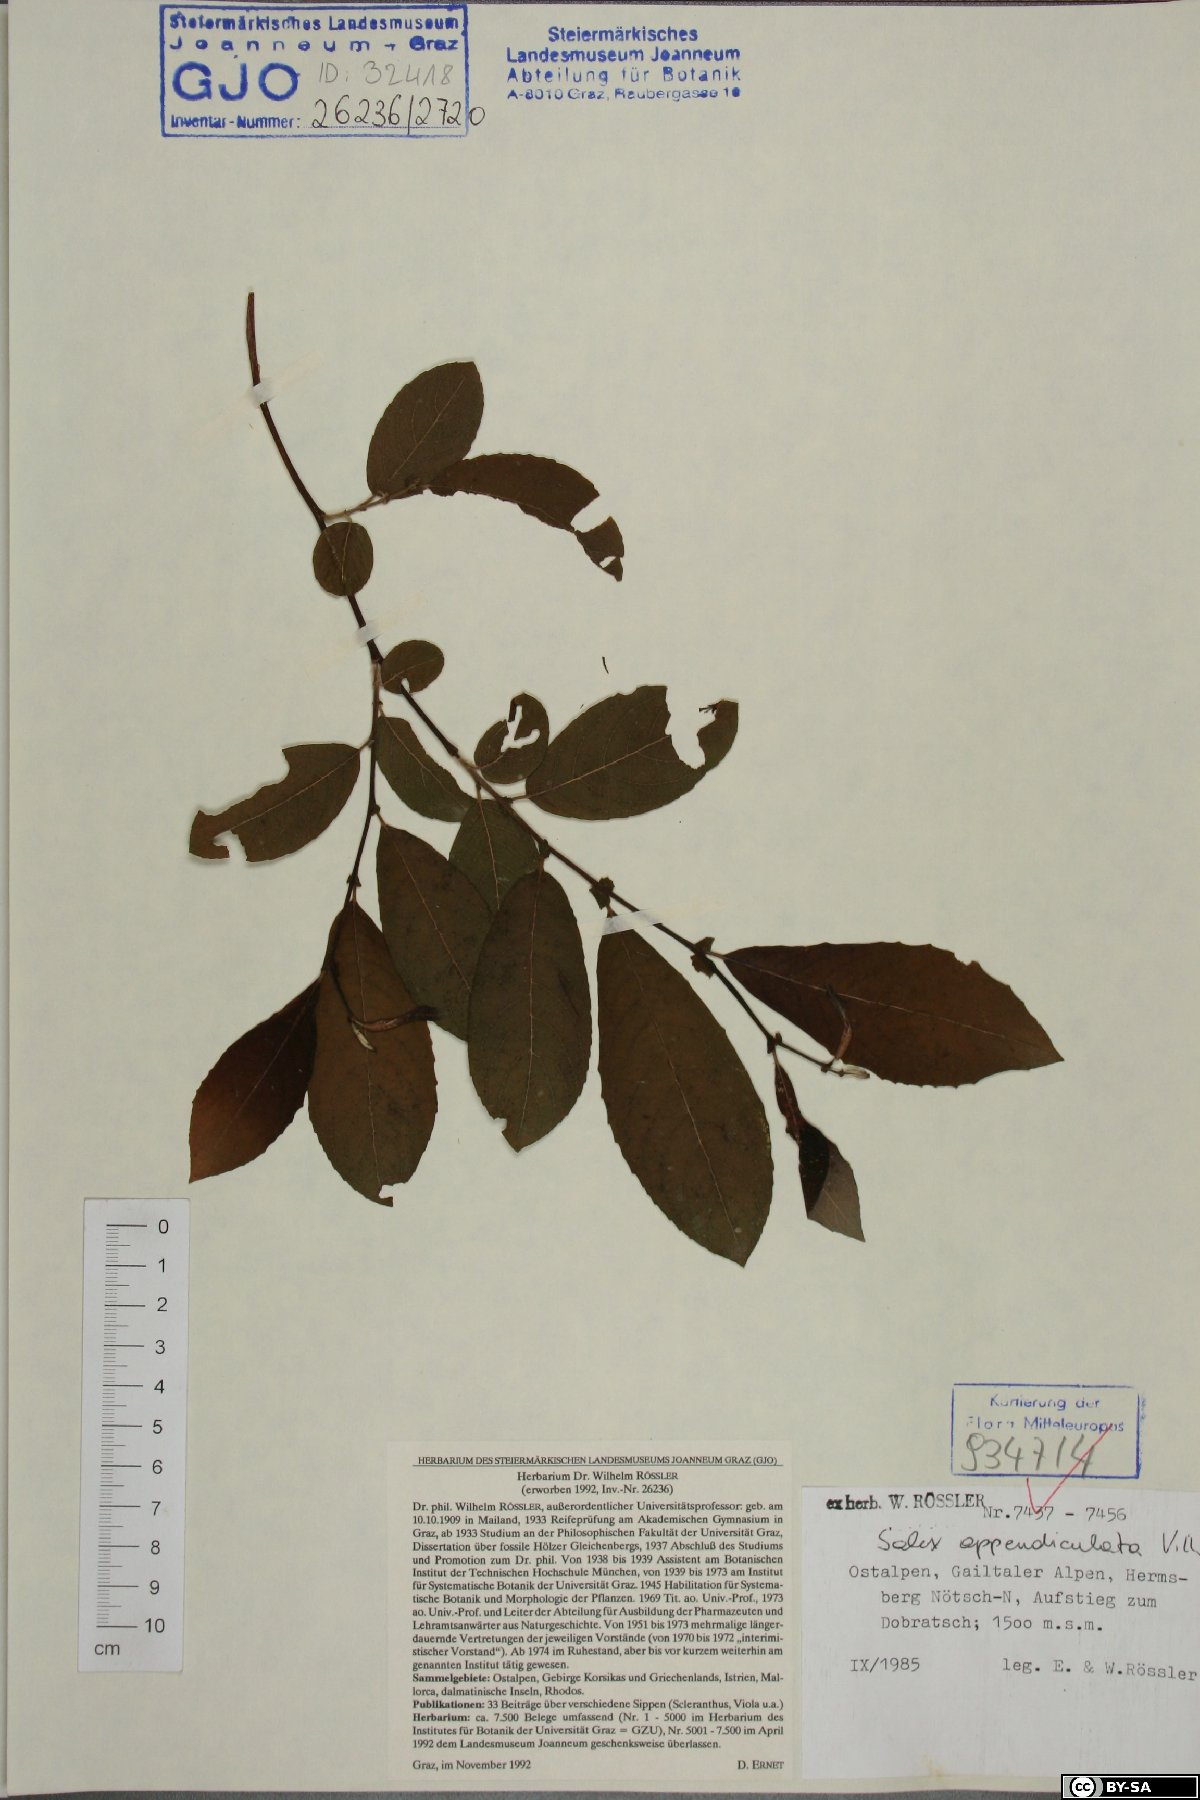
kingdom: Plantae
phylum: Tracheophyta
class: Magnoliopsida
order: Malpighiales
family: Salicaceae
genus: Salix
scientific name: Salix appendiculata
